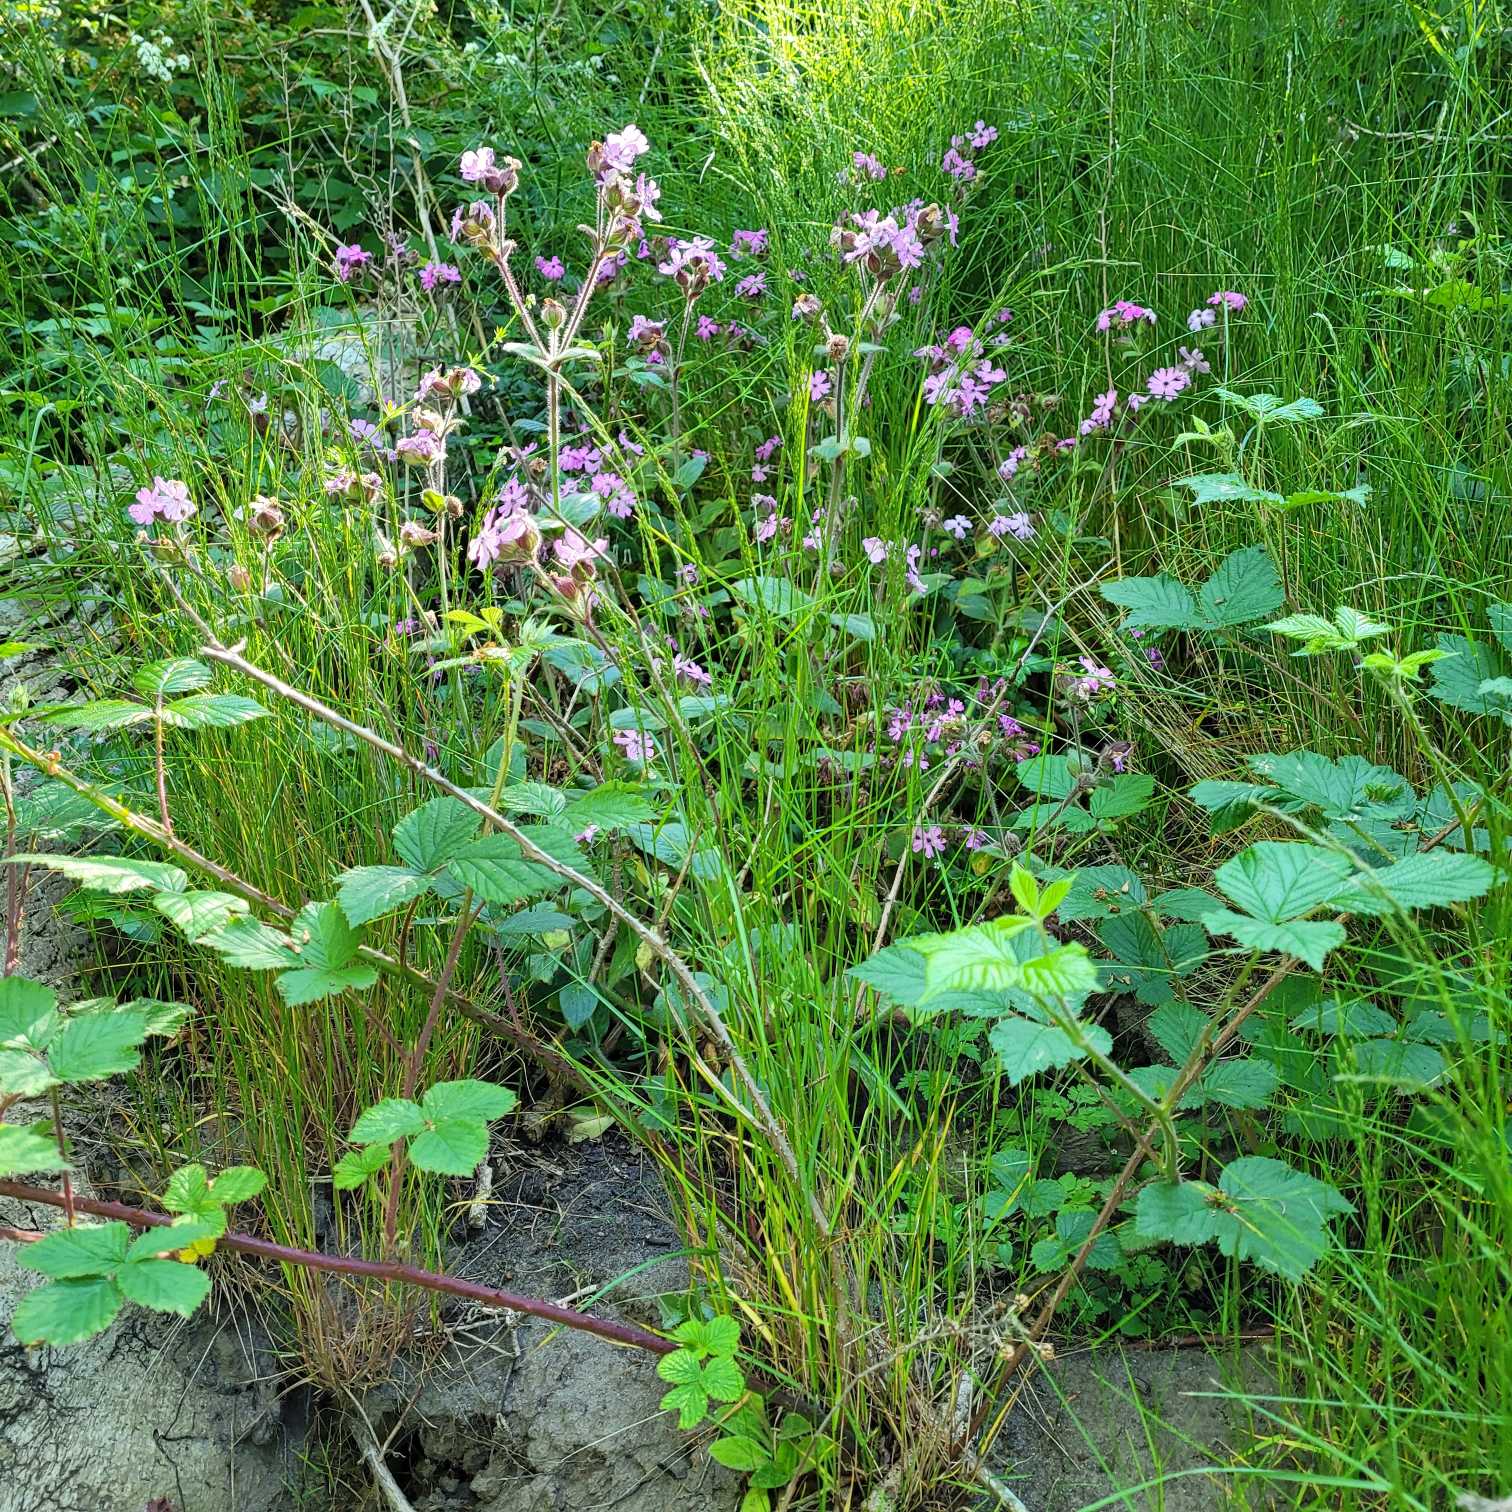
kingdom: Plantae
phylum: Tracheophyta
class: Magnoliopsida
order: Caryophyllales
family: Caryophyllaceae
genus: Silene
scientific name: Silene dioica
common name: Dagpragtstjerne
